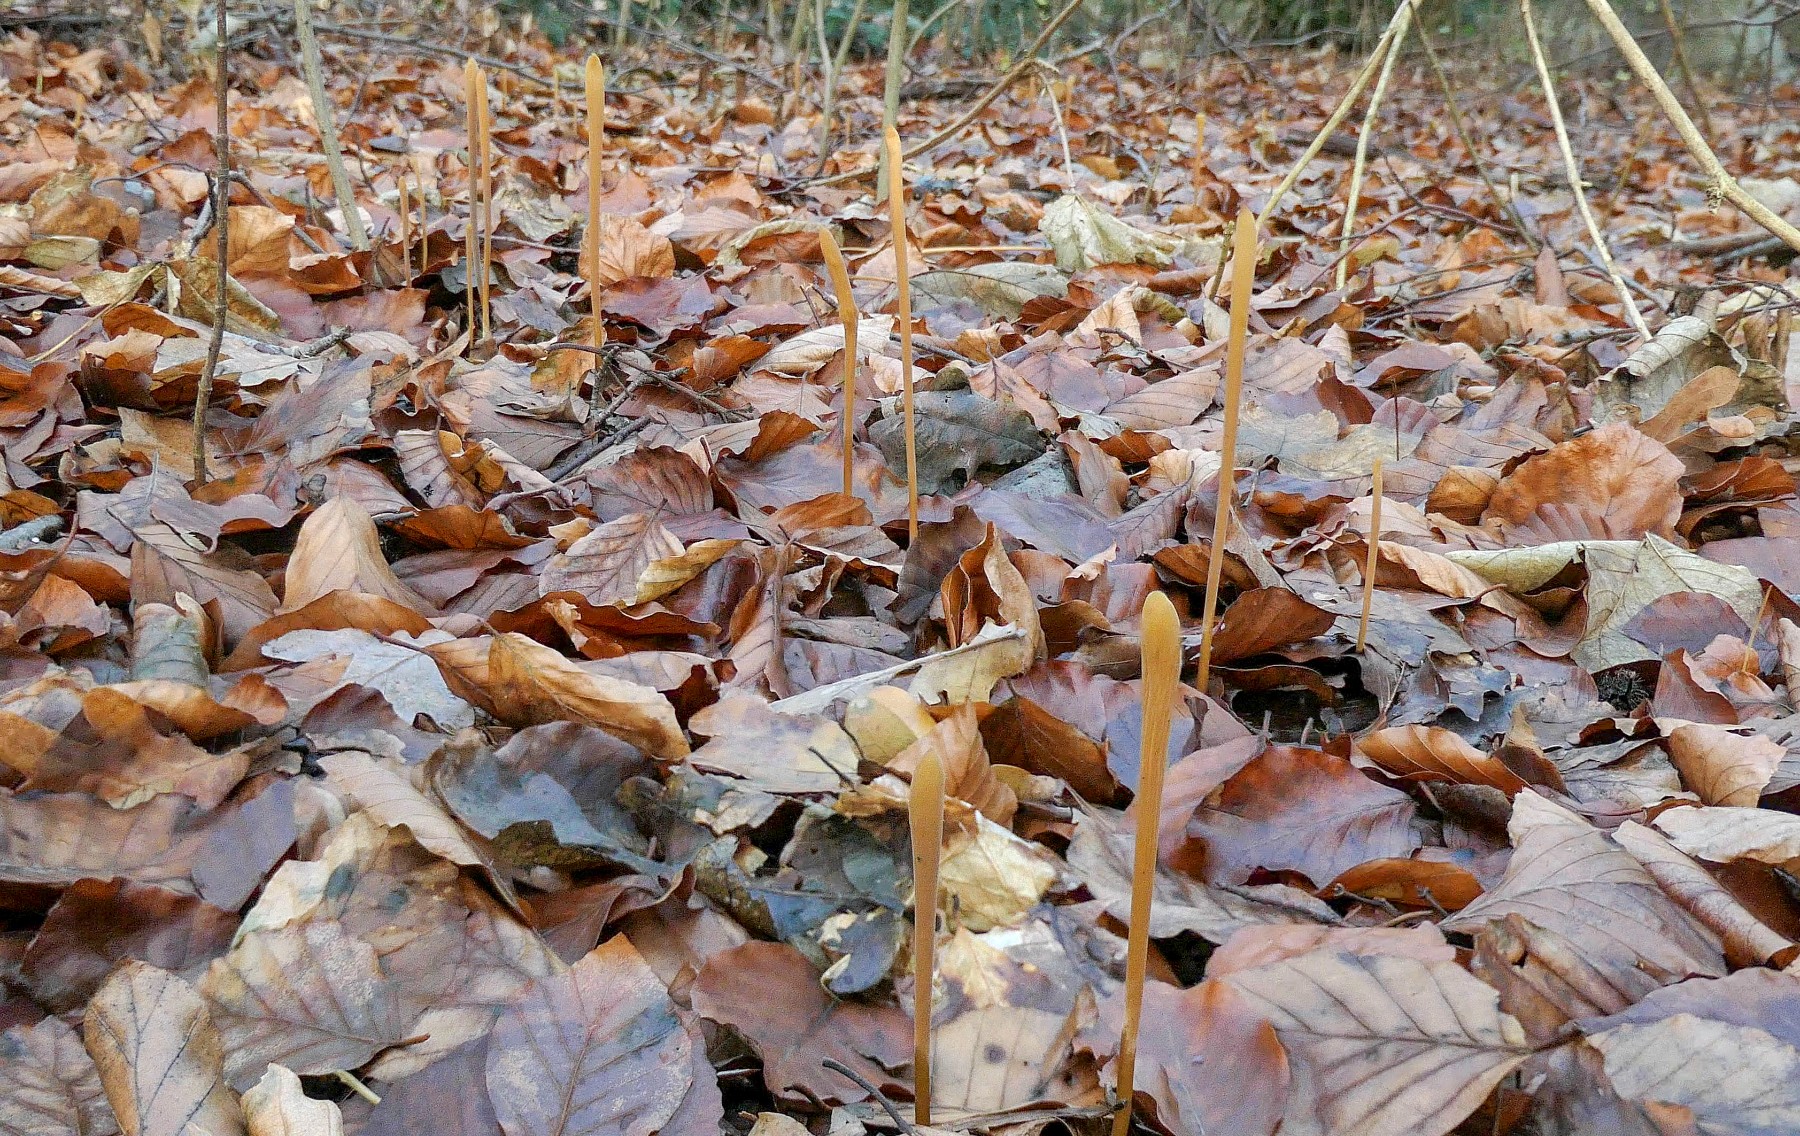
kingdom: Fungi
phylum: Basidiomycota
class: Agaricomycetes
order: Agaricales
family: Typhulaceae
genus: Typhula
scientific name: Typhula fistulosa
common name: pibet rørkølle
